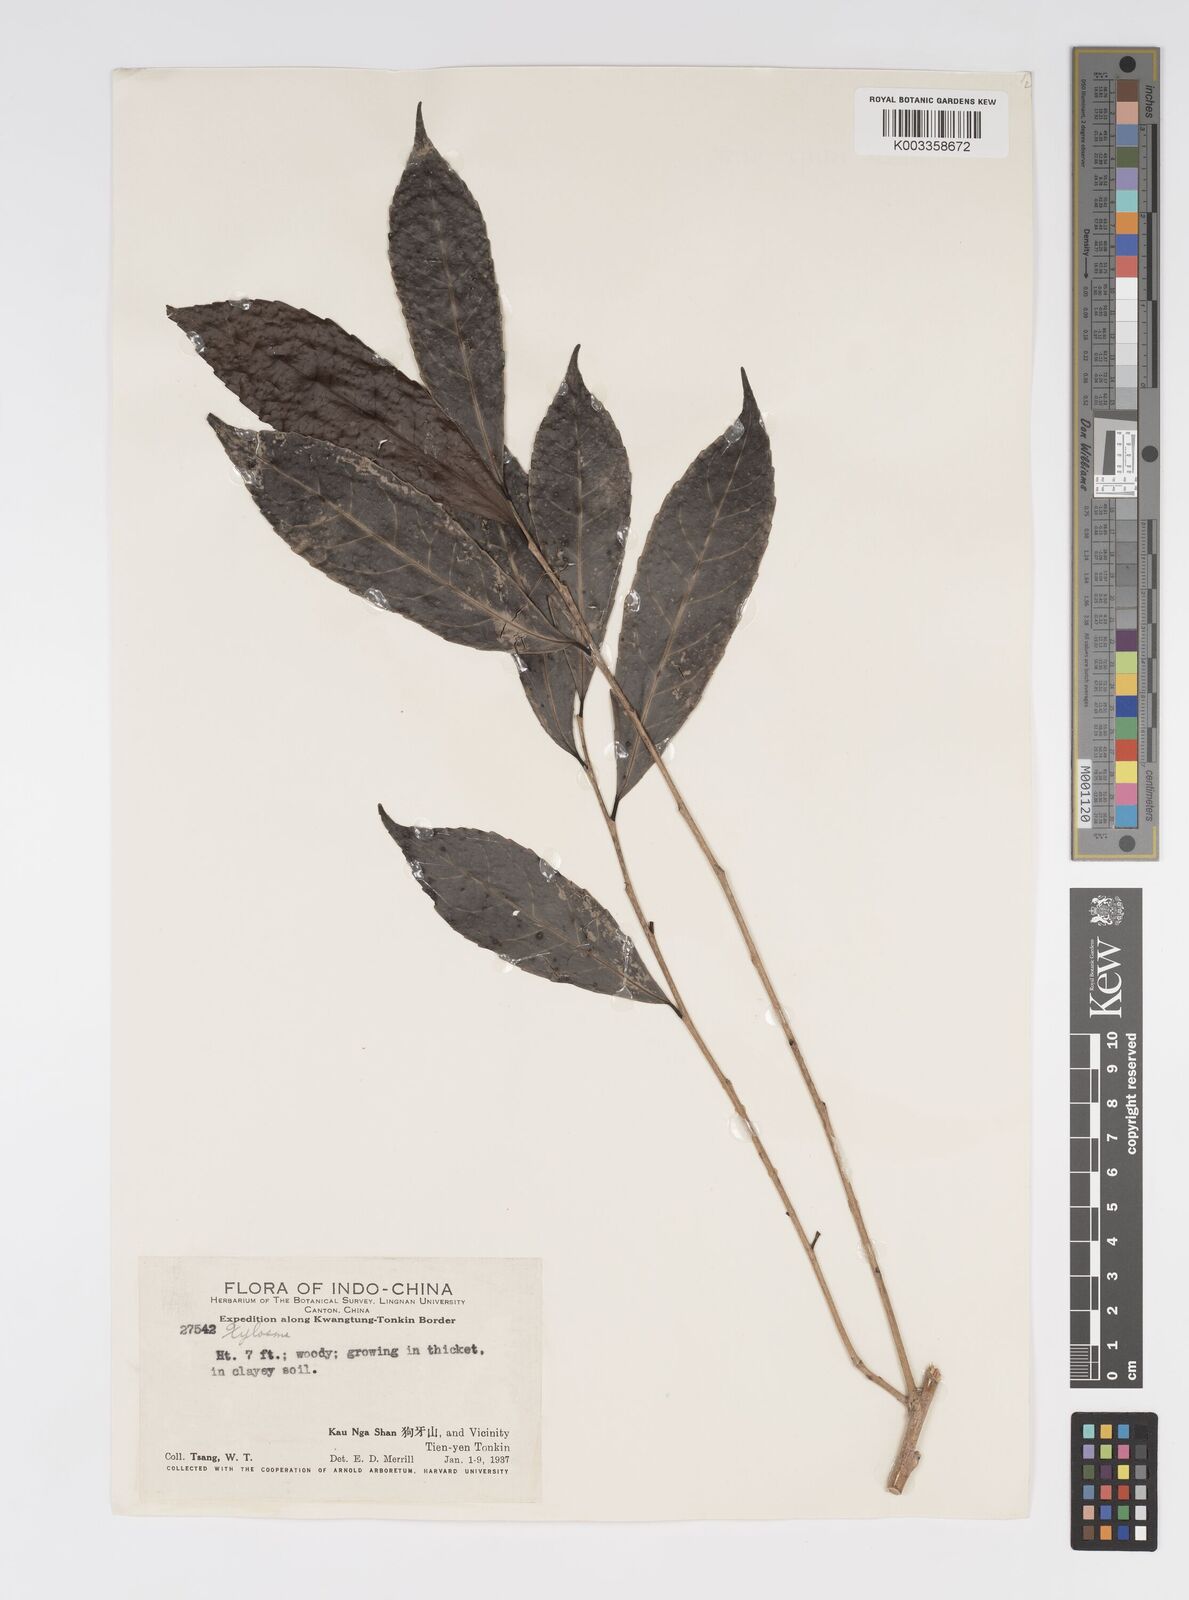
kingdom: Plantae
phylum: Tracheophyta
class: Magnoliopsida
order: Malpighiales
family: Salicaceae
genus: Xylosma
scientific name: Xylosma
